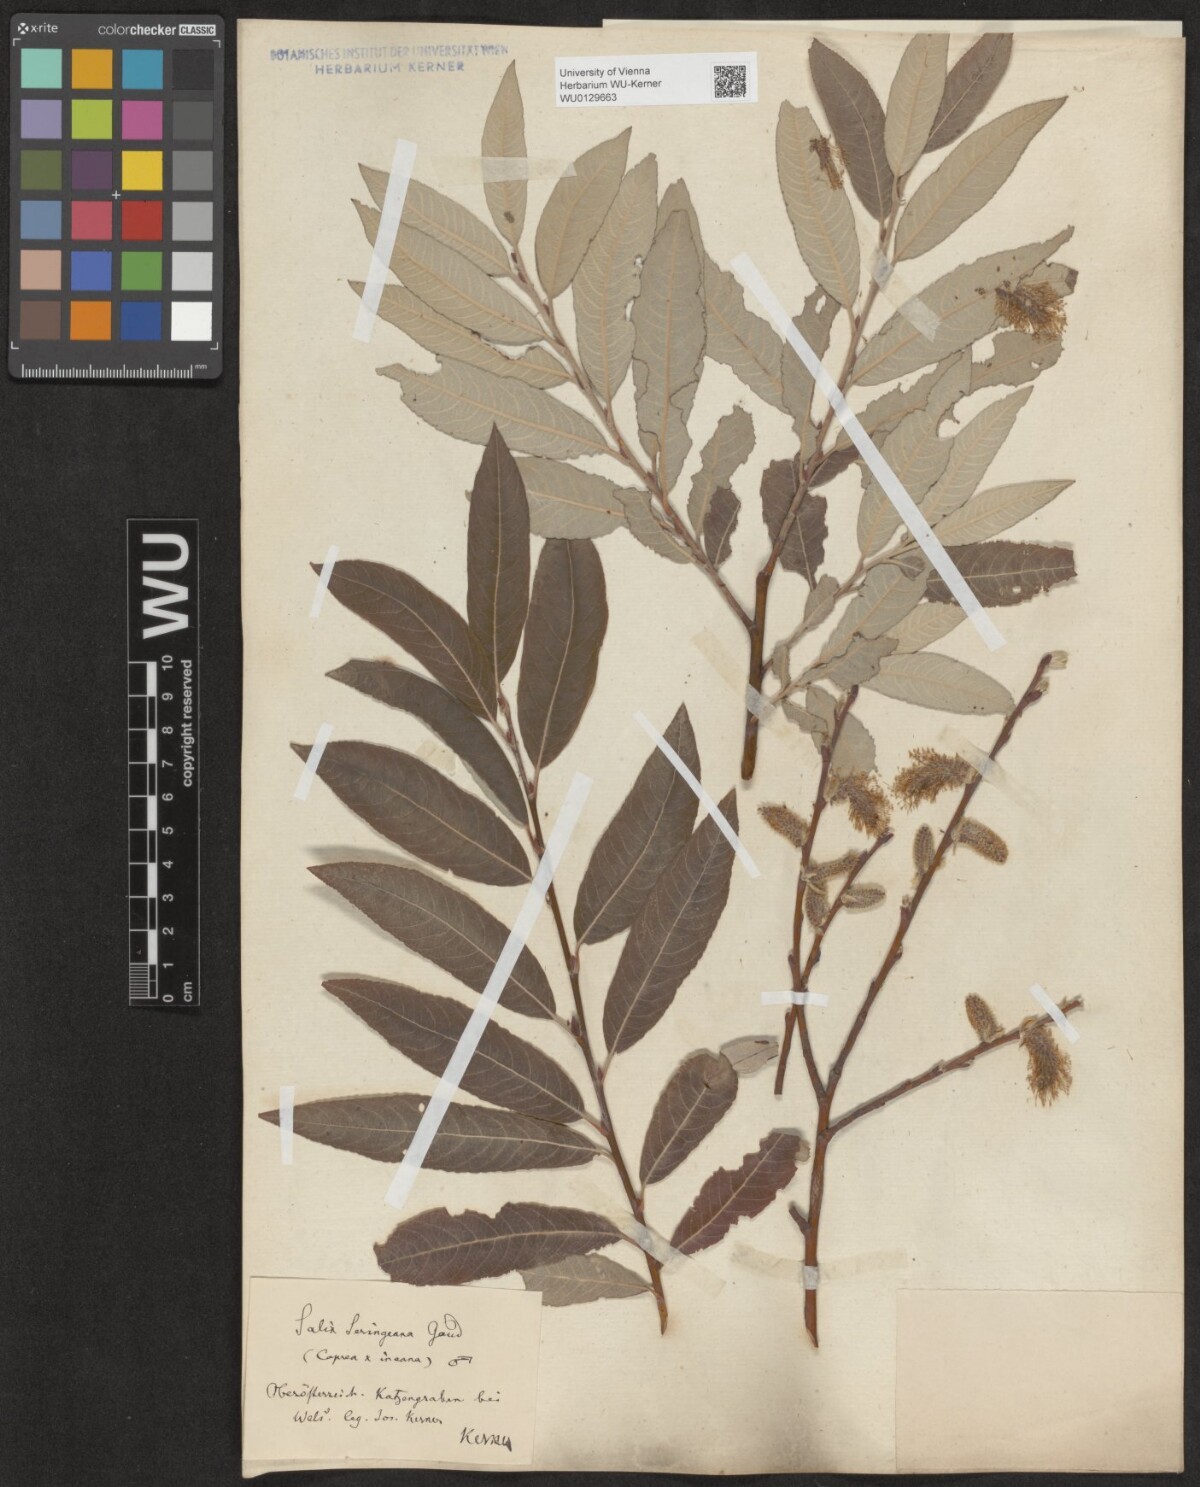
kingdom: Plantae
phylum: Tracheophyta
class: Magnoliopsida
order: Malpighiales
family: Salicaceae
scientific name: Salicaceae
